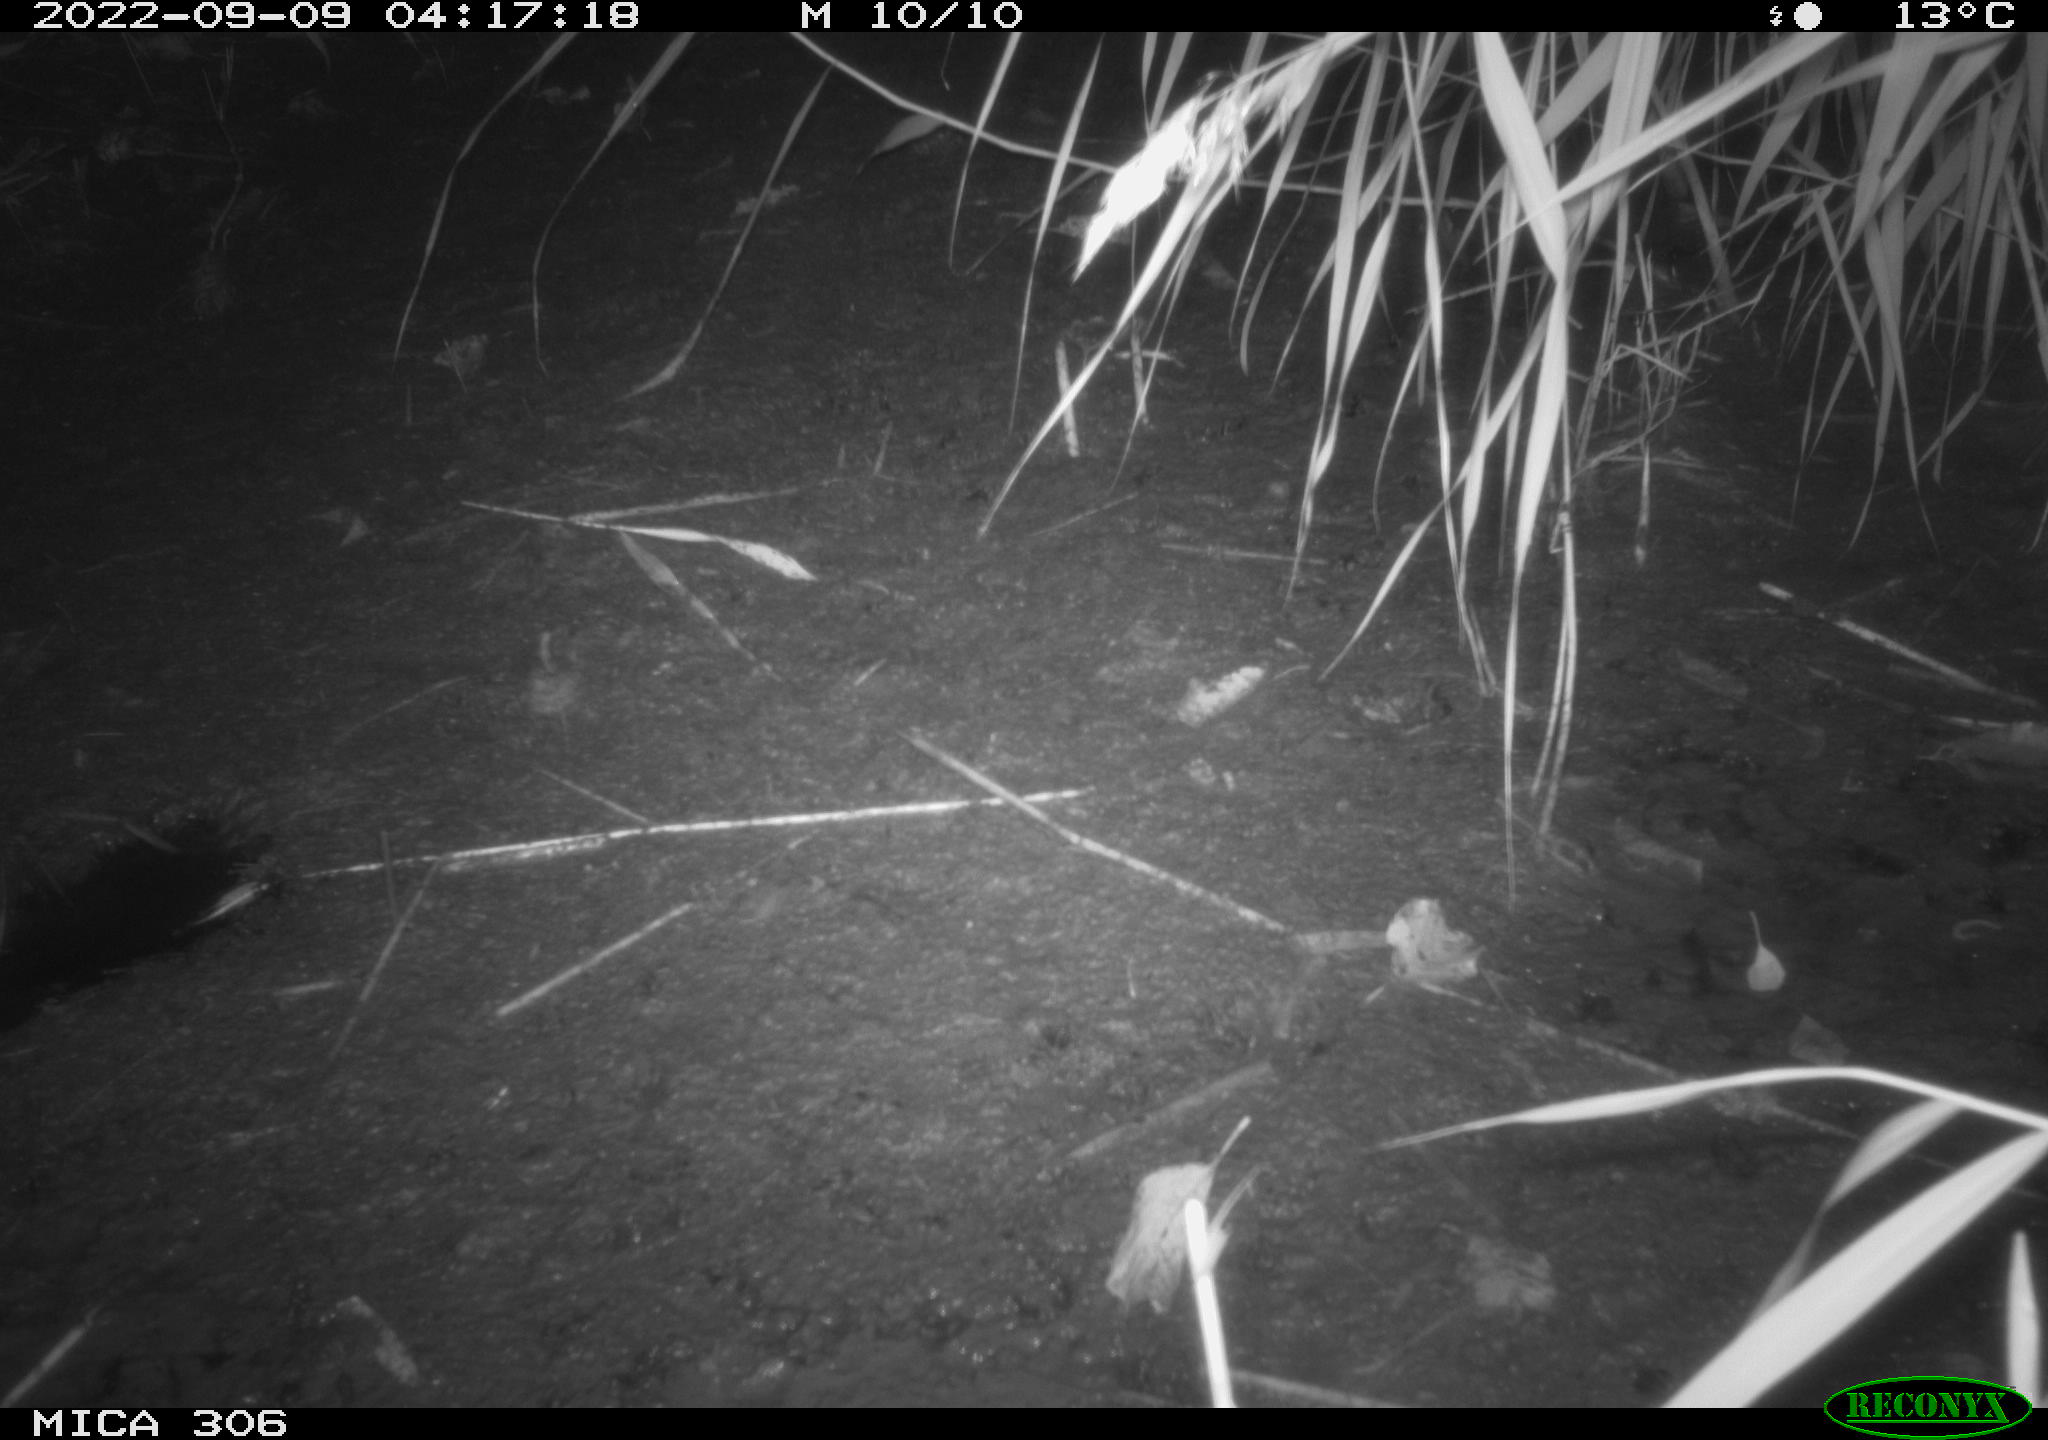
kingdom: Animalia
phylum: Chordata
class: Mammalia
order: Rodentia
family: Muridae
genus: Rattus
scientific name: Rattus norvegicus
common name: Brown rat
